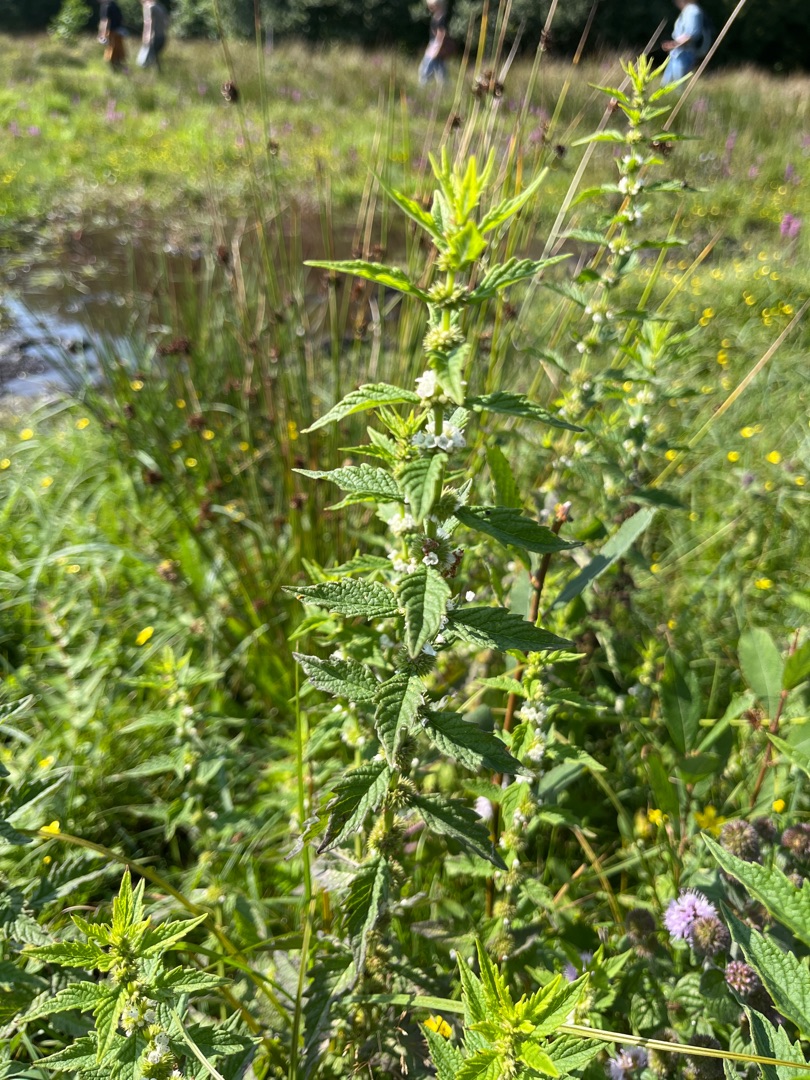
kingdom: Plantae
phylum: Tracheophyta
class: Magnoliopsida
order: Lamiales
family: Lamiaceae
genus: Lycopus
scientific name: Lycopus europaeus
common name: Sværtevæld
